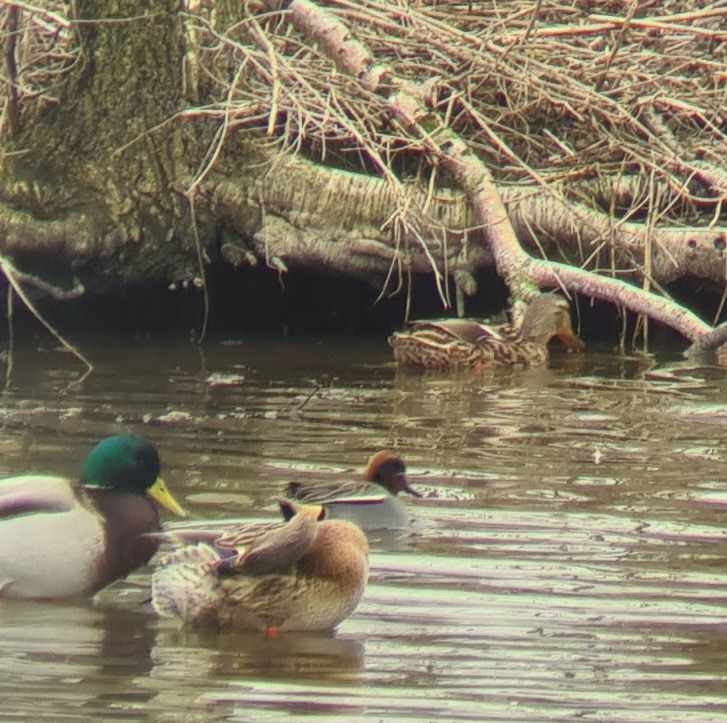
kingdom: Animalia
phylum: Chordata
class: Aves
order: Anseriformes
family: Anatidae
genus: Anas
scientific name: Anas crecca
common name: Krikand
